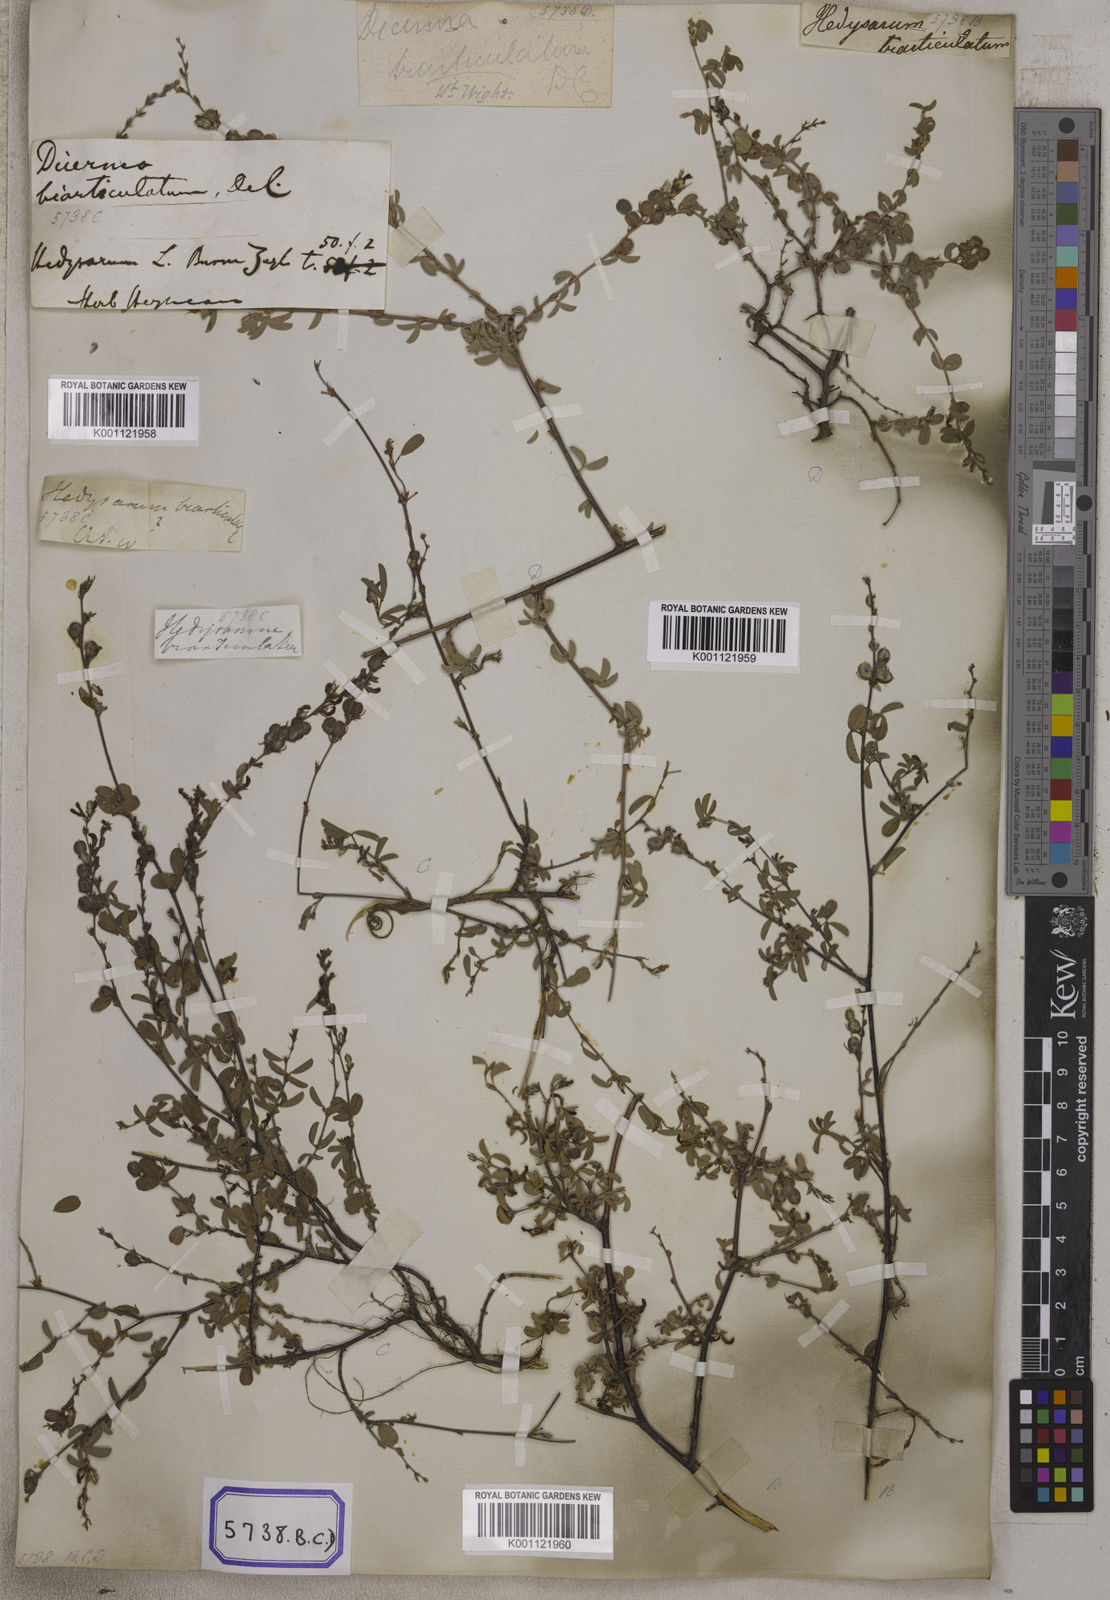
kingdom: Plantae
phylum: Tracheophyta
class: Magnoliopsida
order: Fabales
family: Fabaceae
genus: Aphyllodium
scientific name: Aphyllodium biarticulatum
